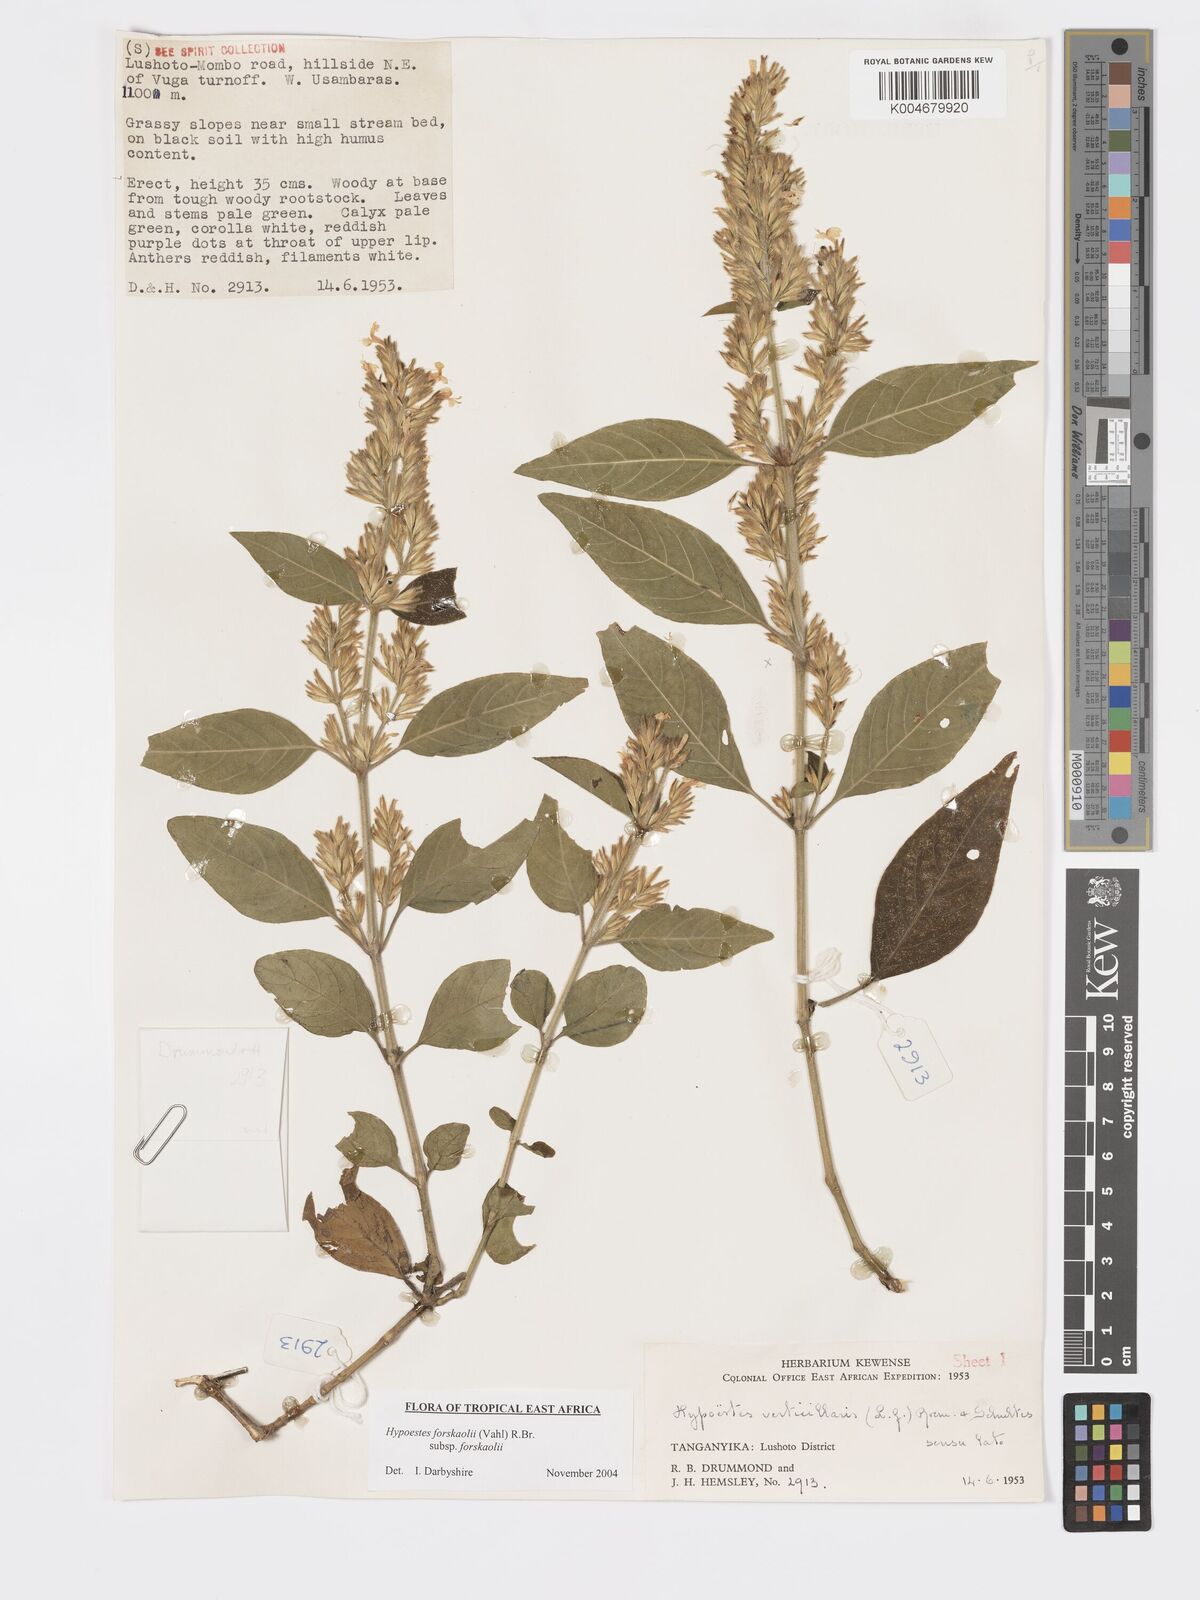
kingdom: Plantae
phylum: Tracheophyta
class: Magnoliopsida
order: Lamiales
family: Acanthaceae
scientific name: Acanthaceae
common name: Acanthaceae
